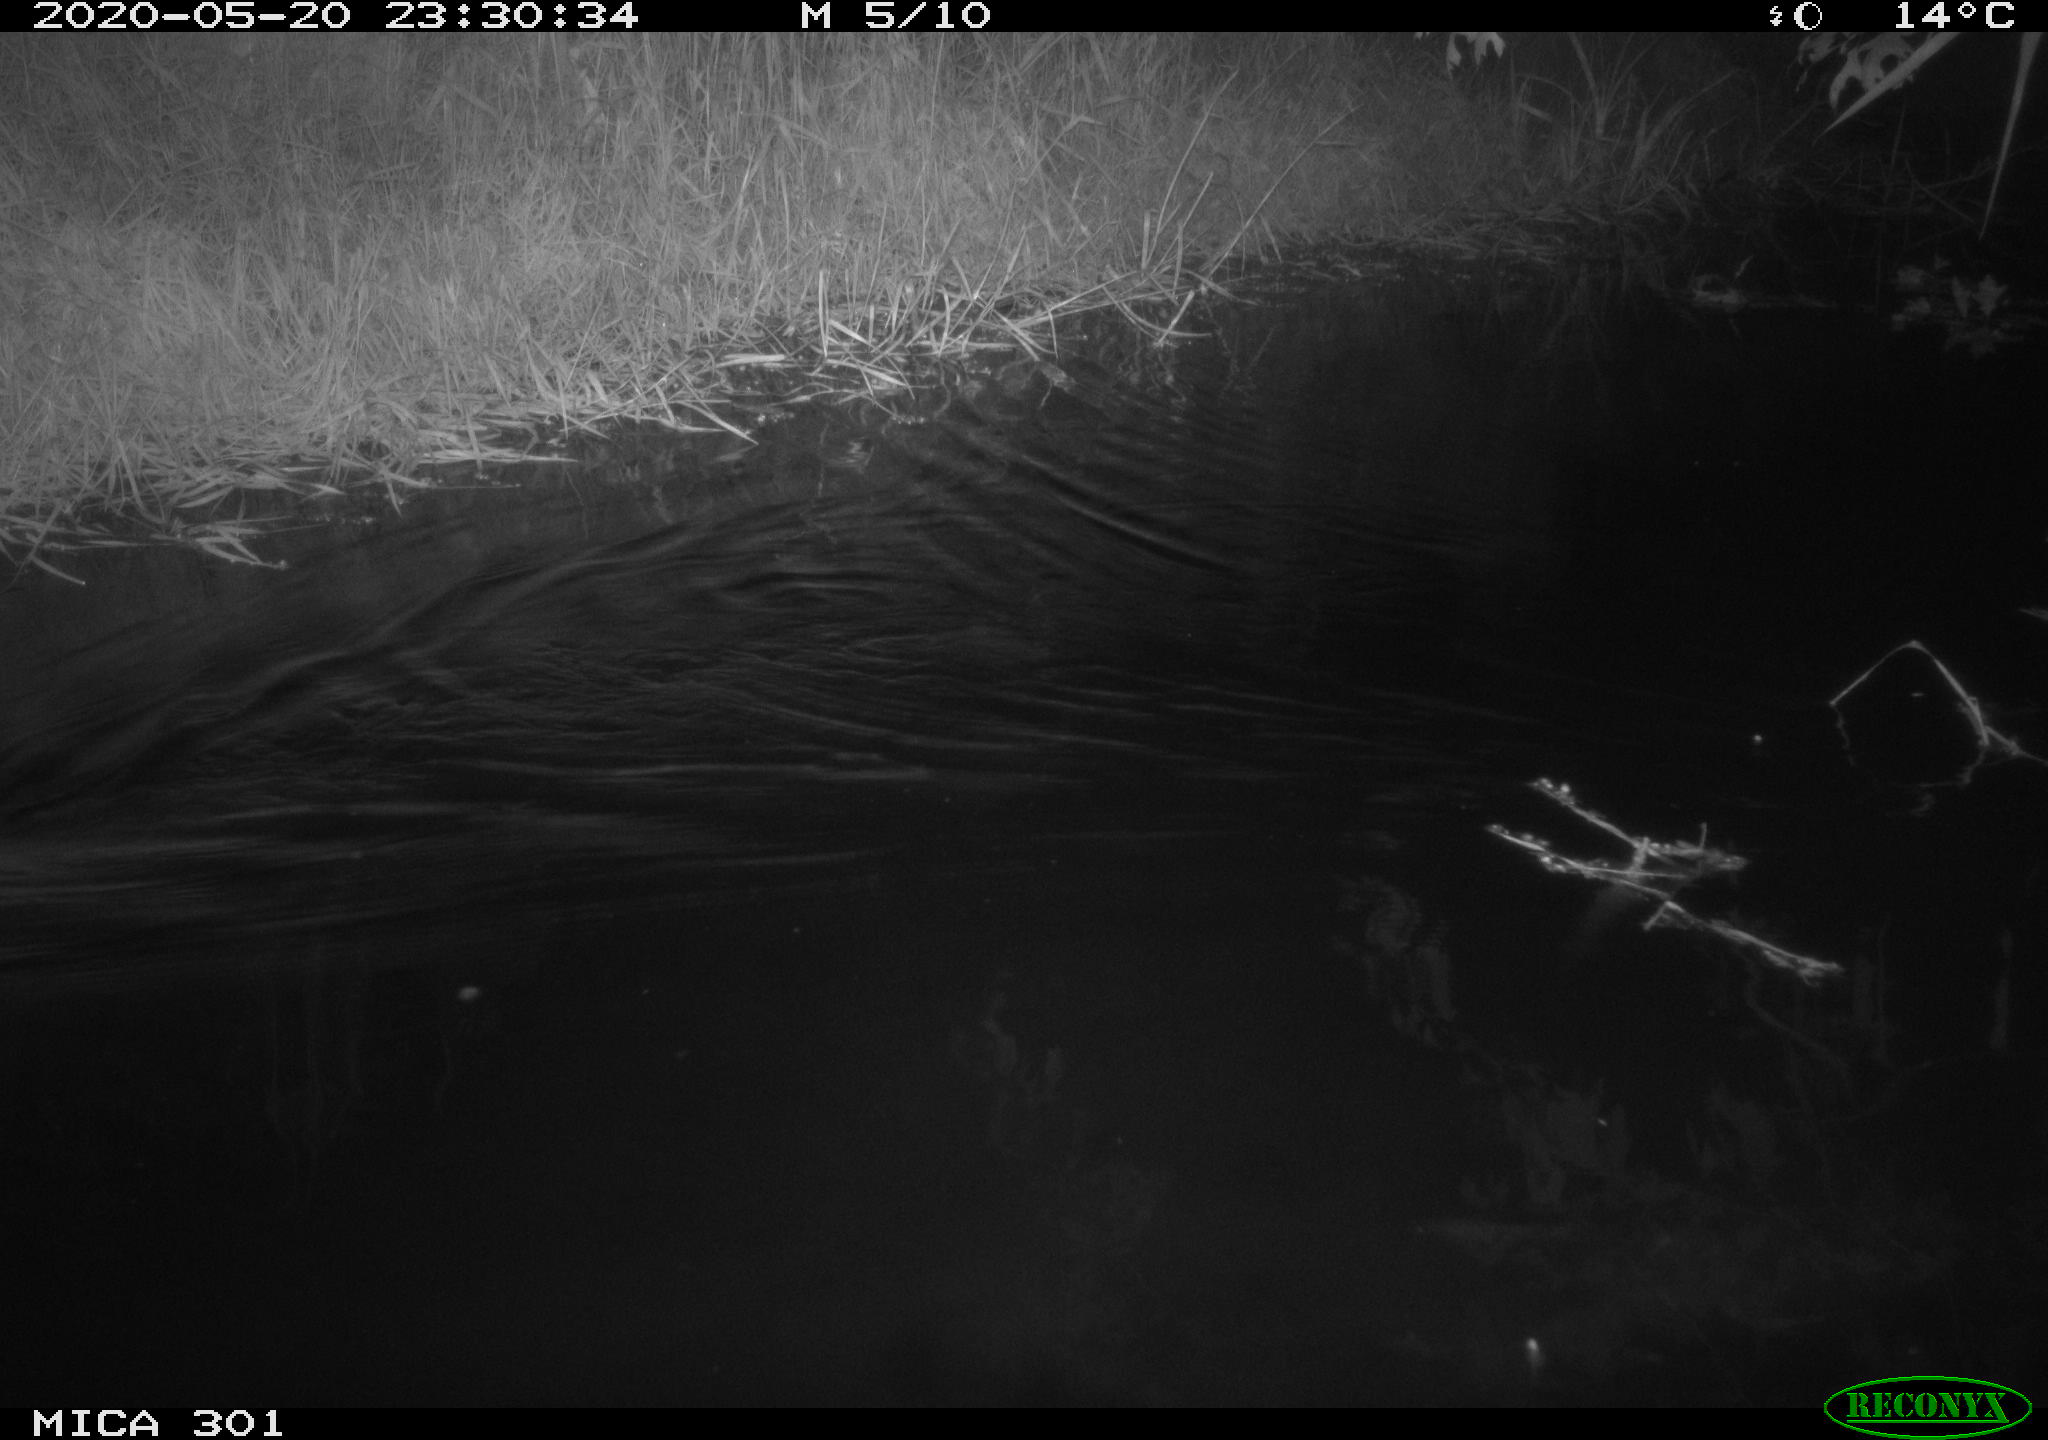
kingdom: Animalia
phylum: Chordata
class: Mammalia
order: Rodentia
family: Castoridae
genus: Castor
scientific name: Castor fiber
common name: Eurasian beaver
